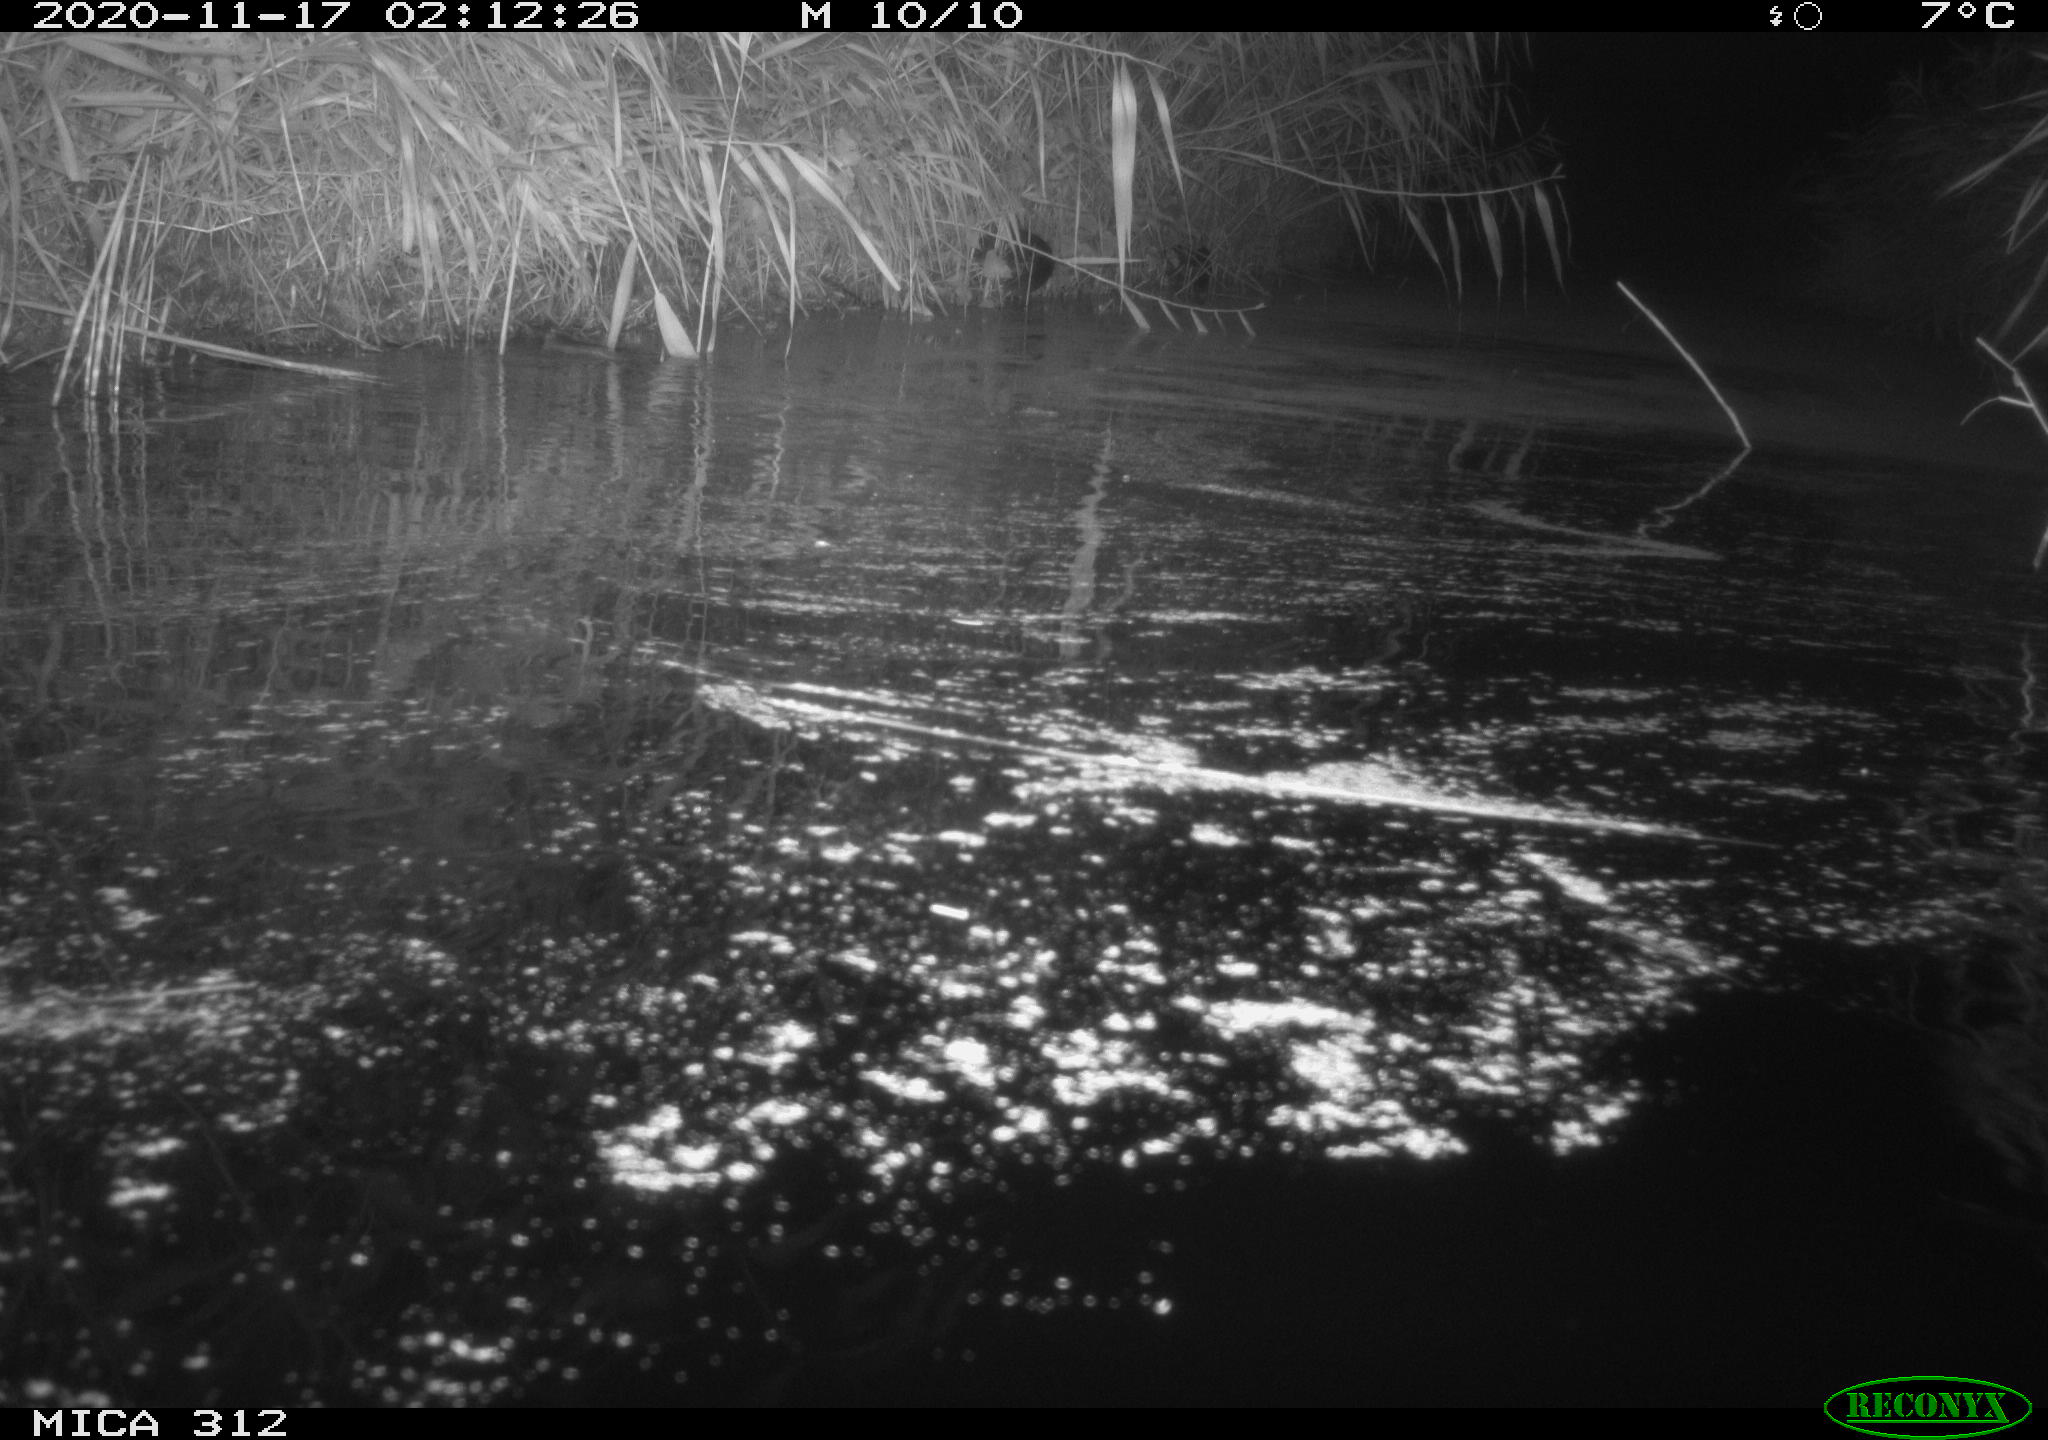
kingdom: Animalia
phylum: Chordata
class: Aves
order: Gruiformes
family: Rallidae
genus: Fulica
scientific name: Fulica atra
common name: Eurasian coot
